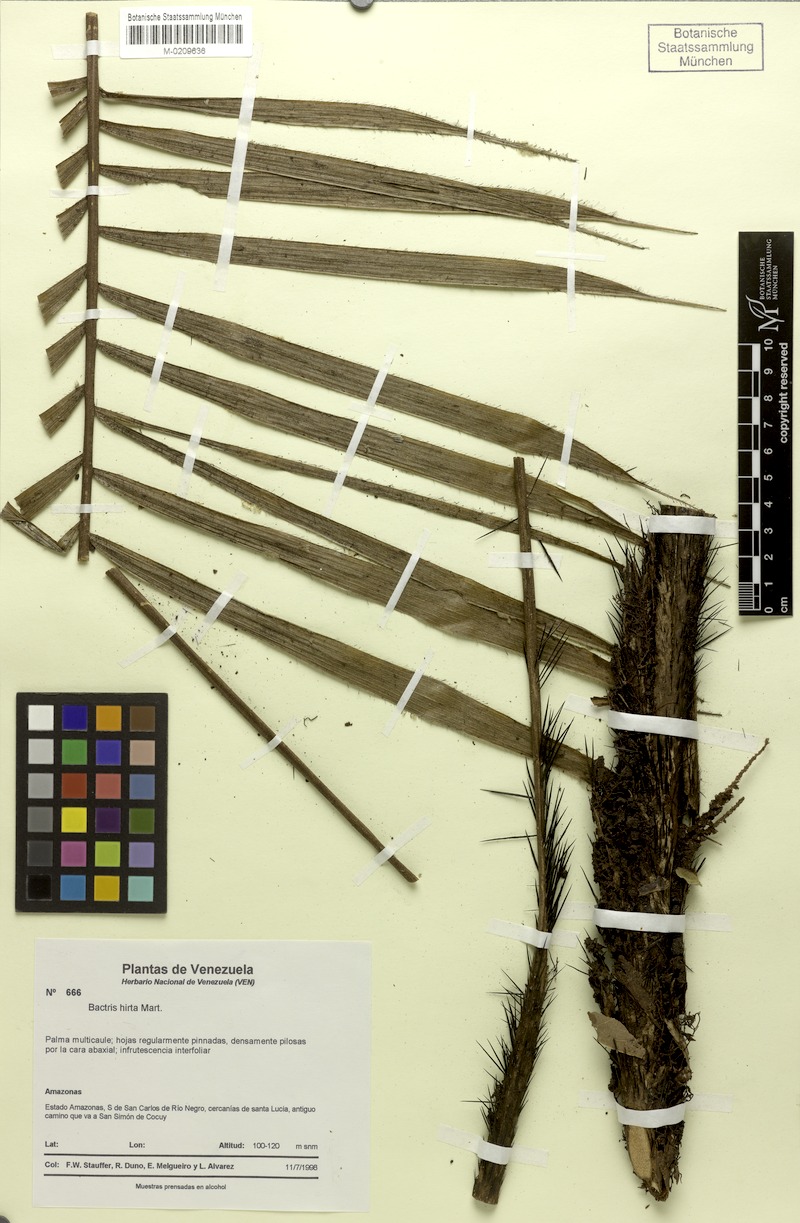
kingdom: Plantae
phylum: Tracheophyta
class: Liliopsida
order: Arecales
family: Arecaceae
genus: Bactris
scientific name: Bactris hirta
